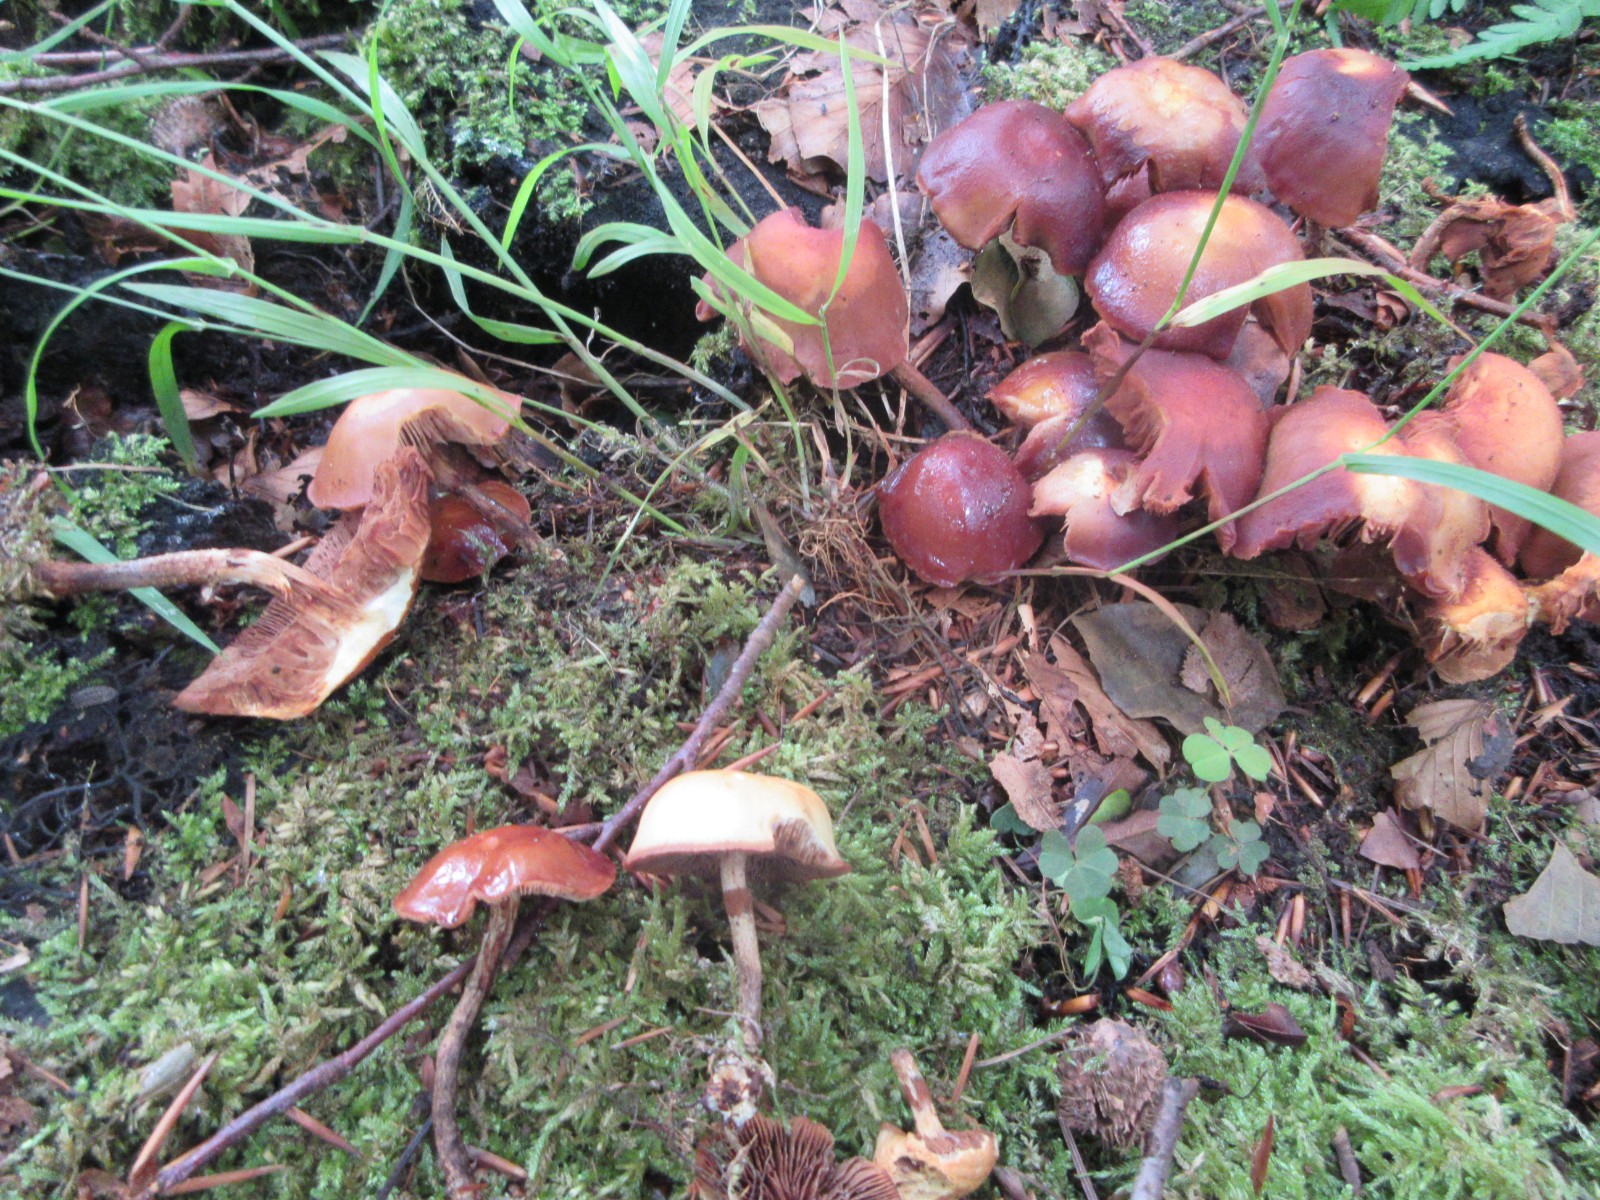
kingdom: Fungi
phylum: Basidiomycota
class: Agaricomycetes
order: Agaricales
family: Strophariaceae
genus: Kuehneromyces
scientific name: Kuehneromyces mutabilis
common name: foranderlig skælhat
